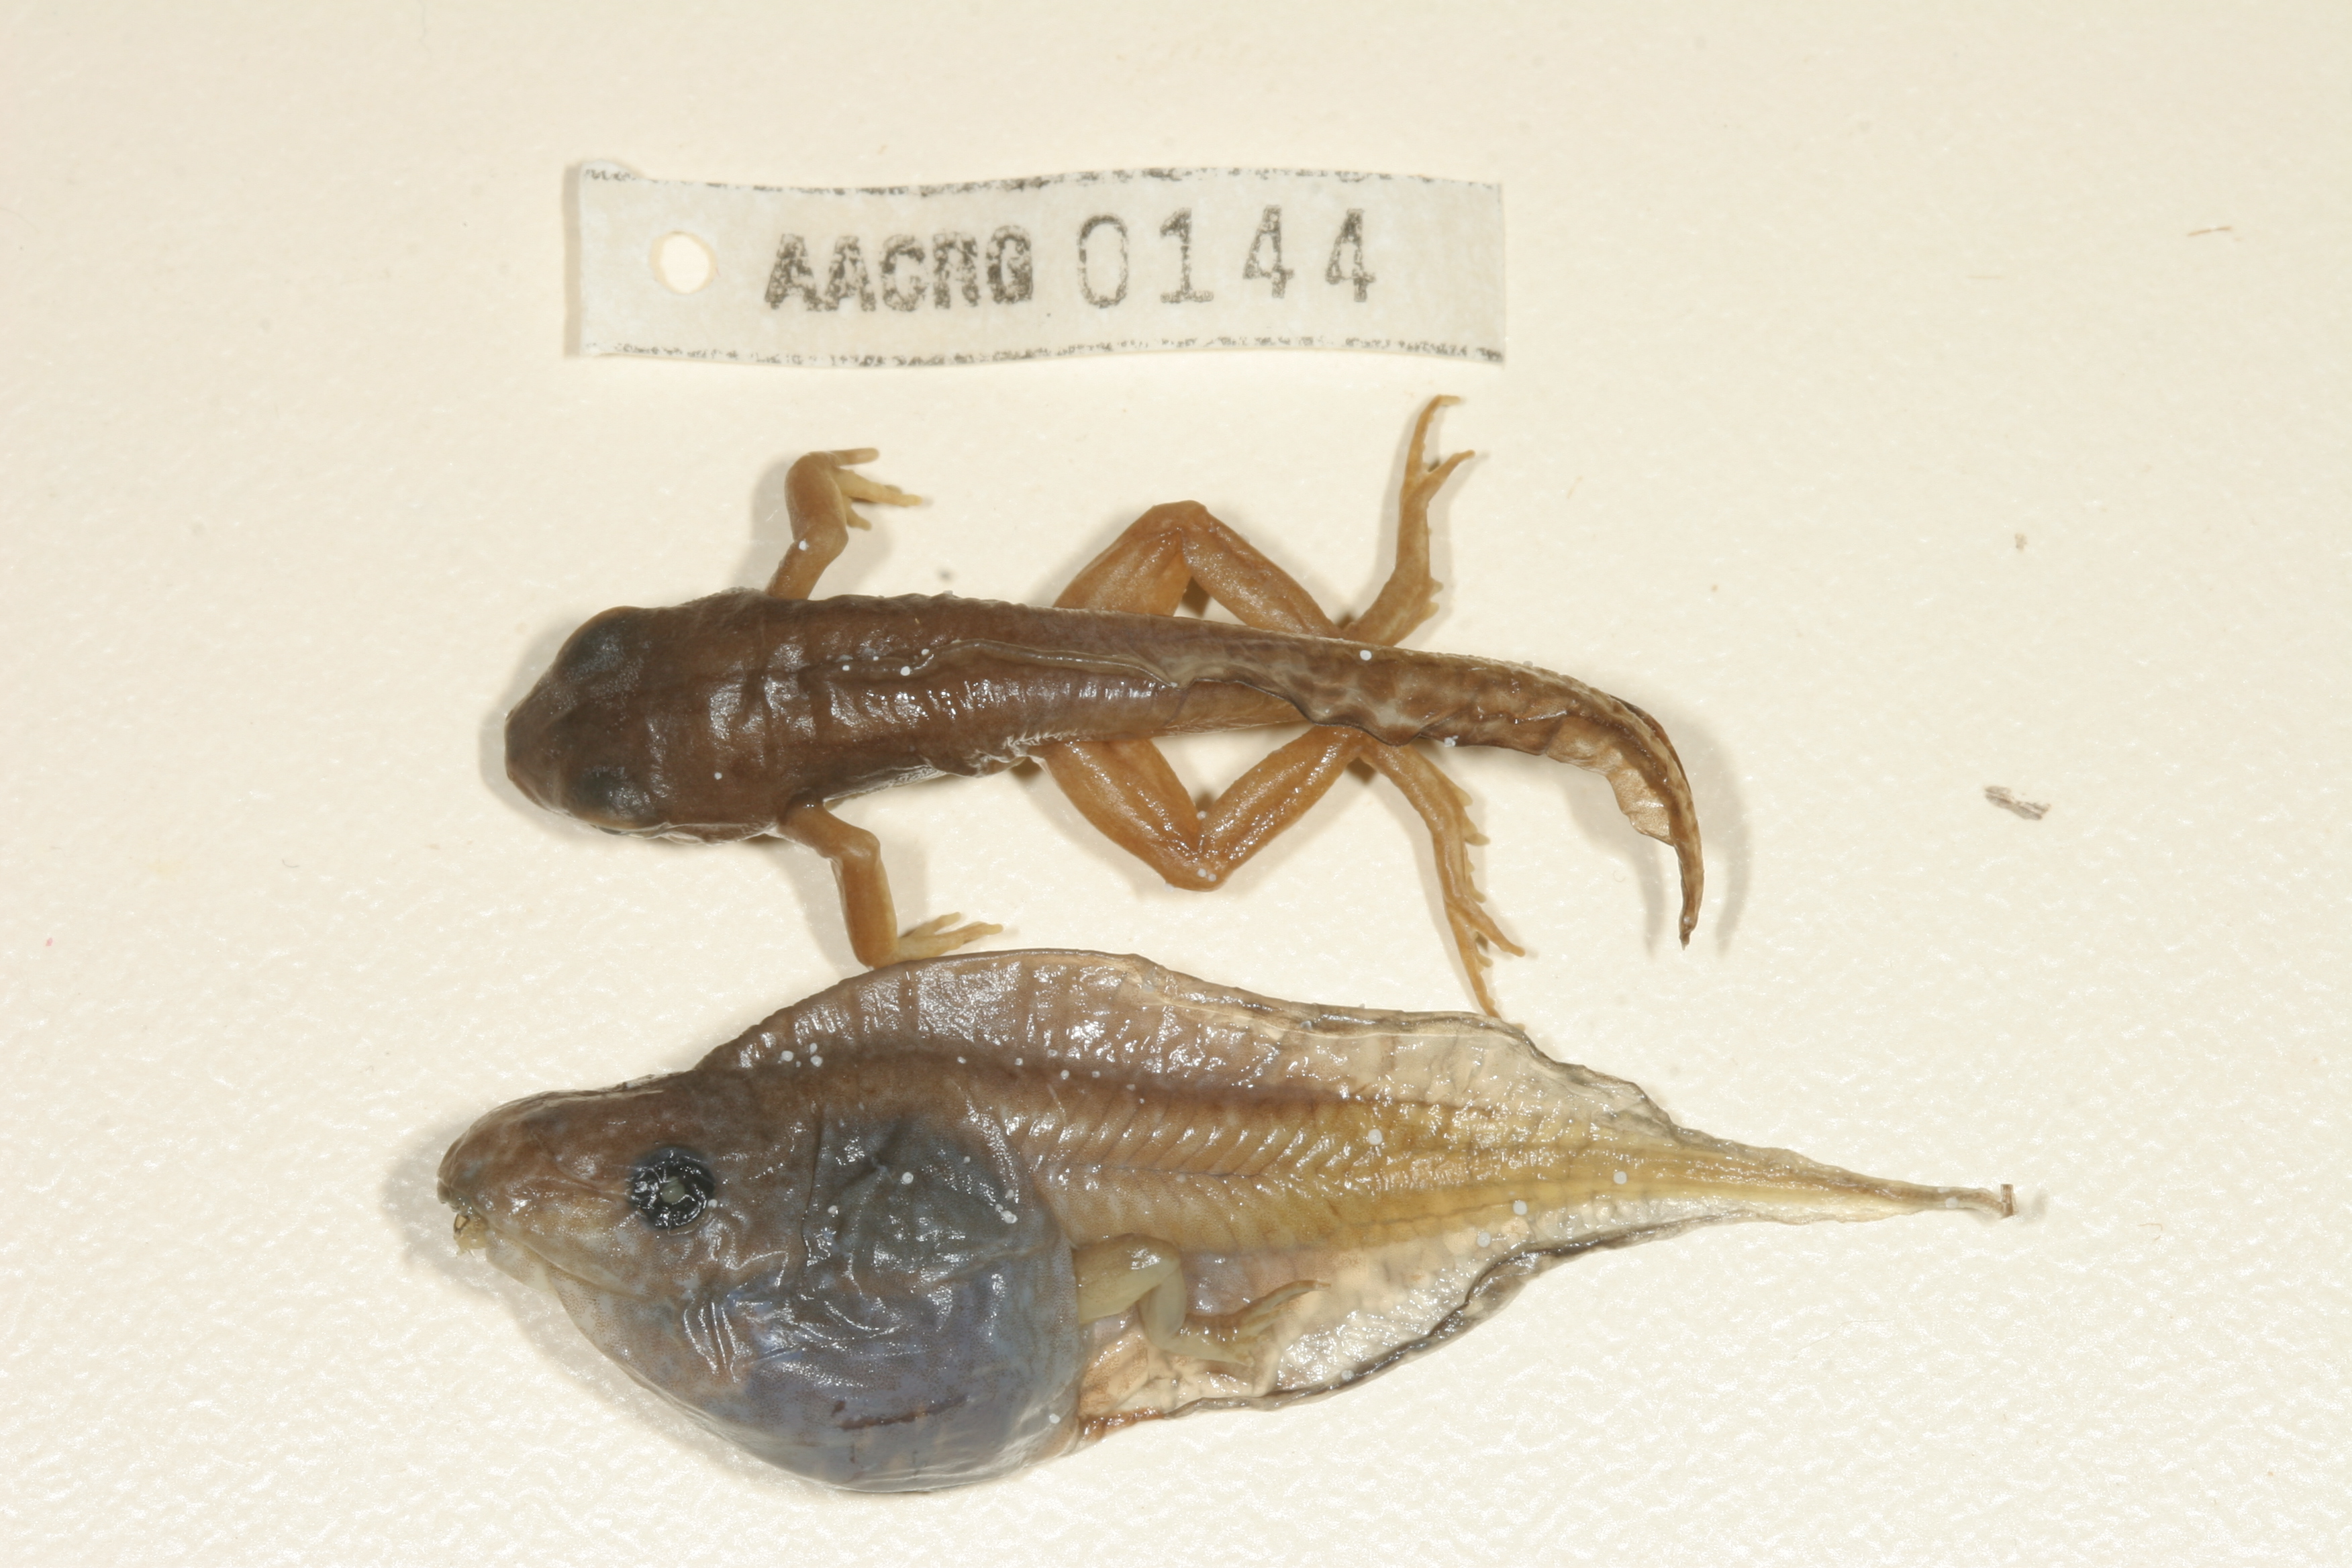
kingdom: Animalia
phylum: Chordata
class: Amphibia
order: Anura
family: Hyperoliidae
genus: Phlyctimantis
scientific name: Phlyctimantis maculatus
